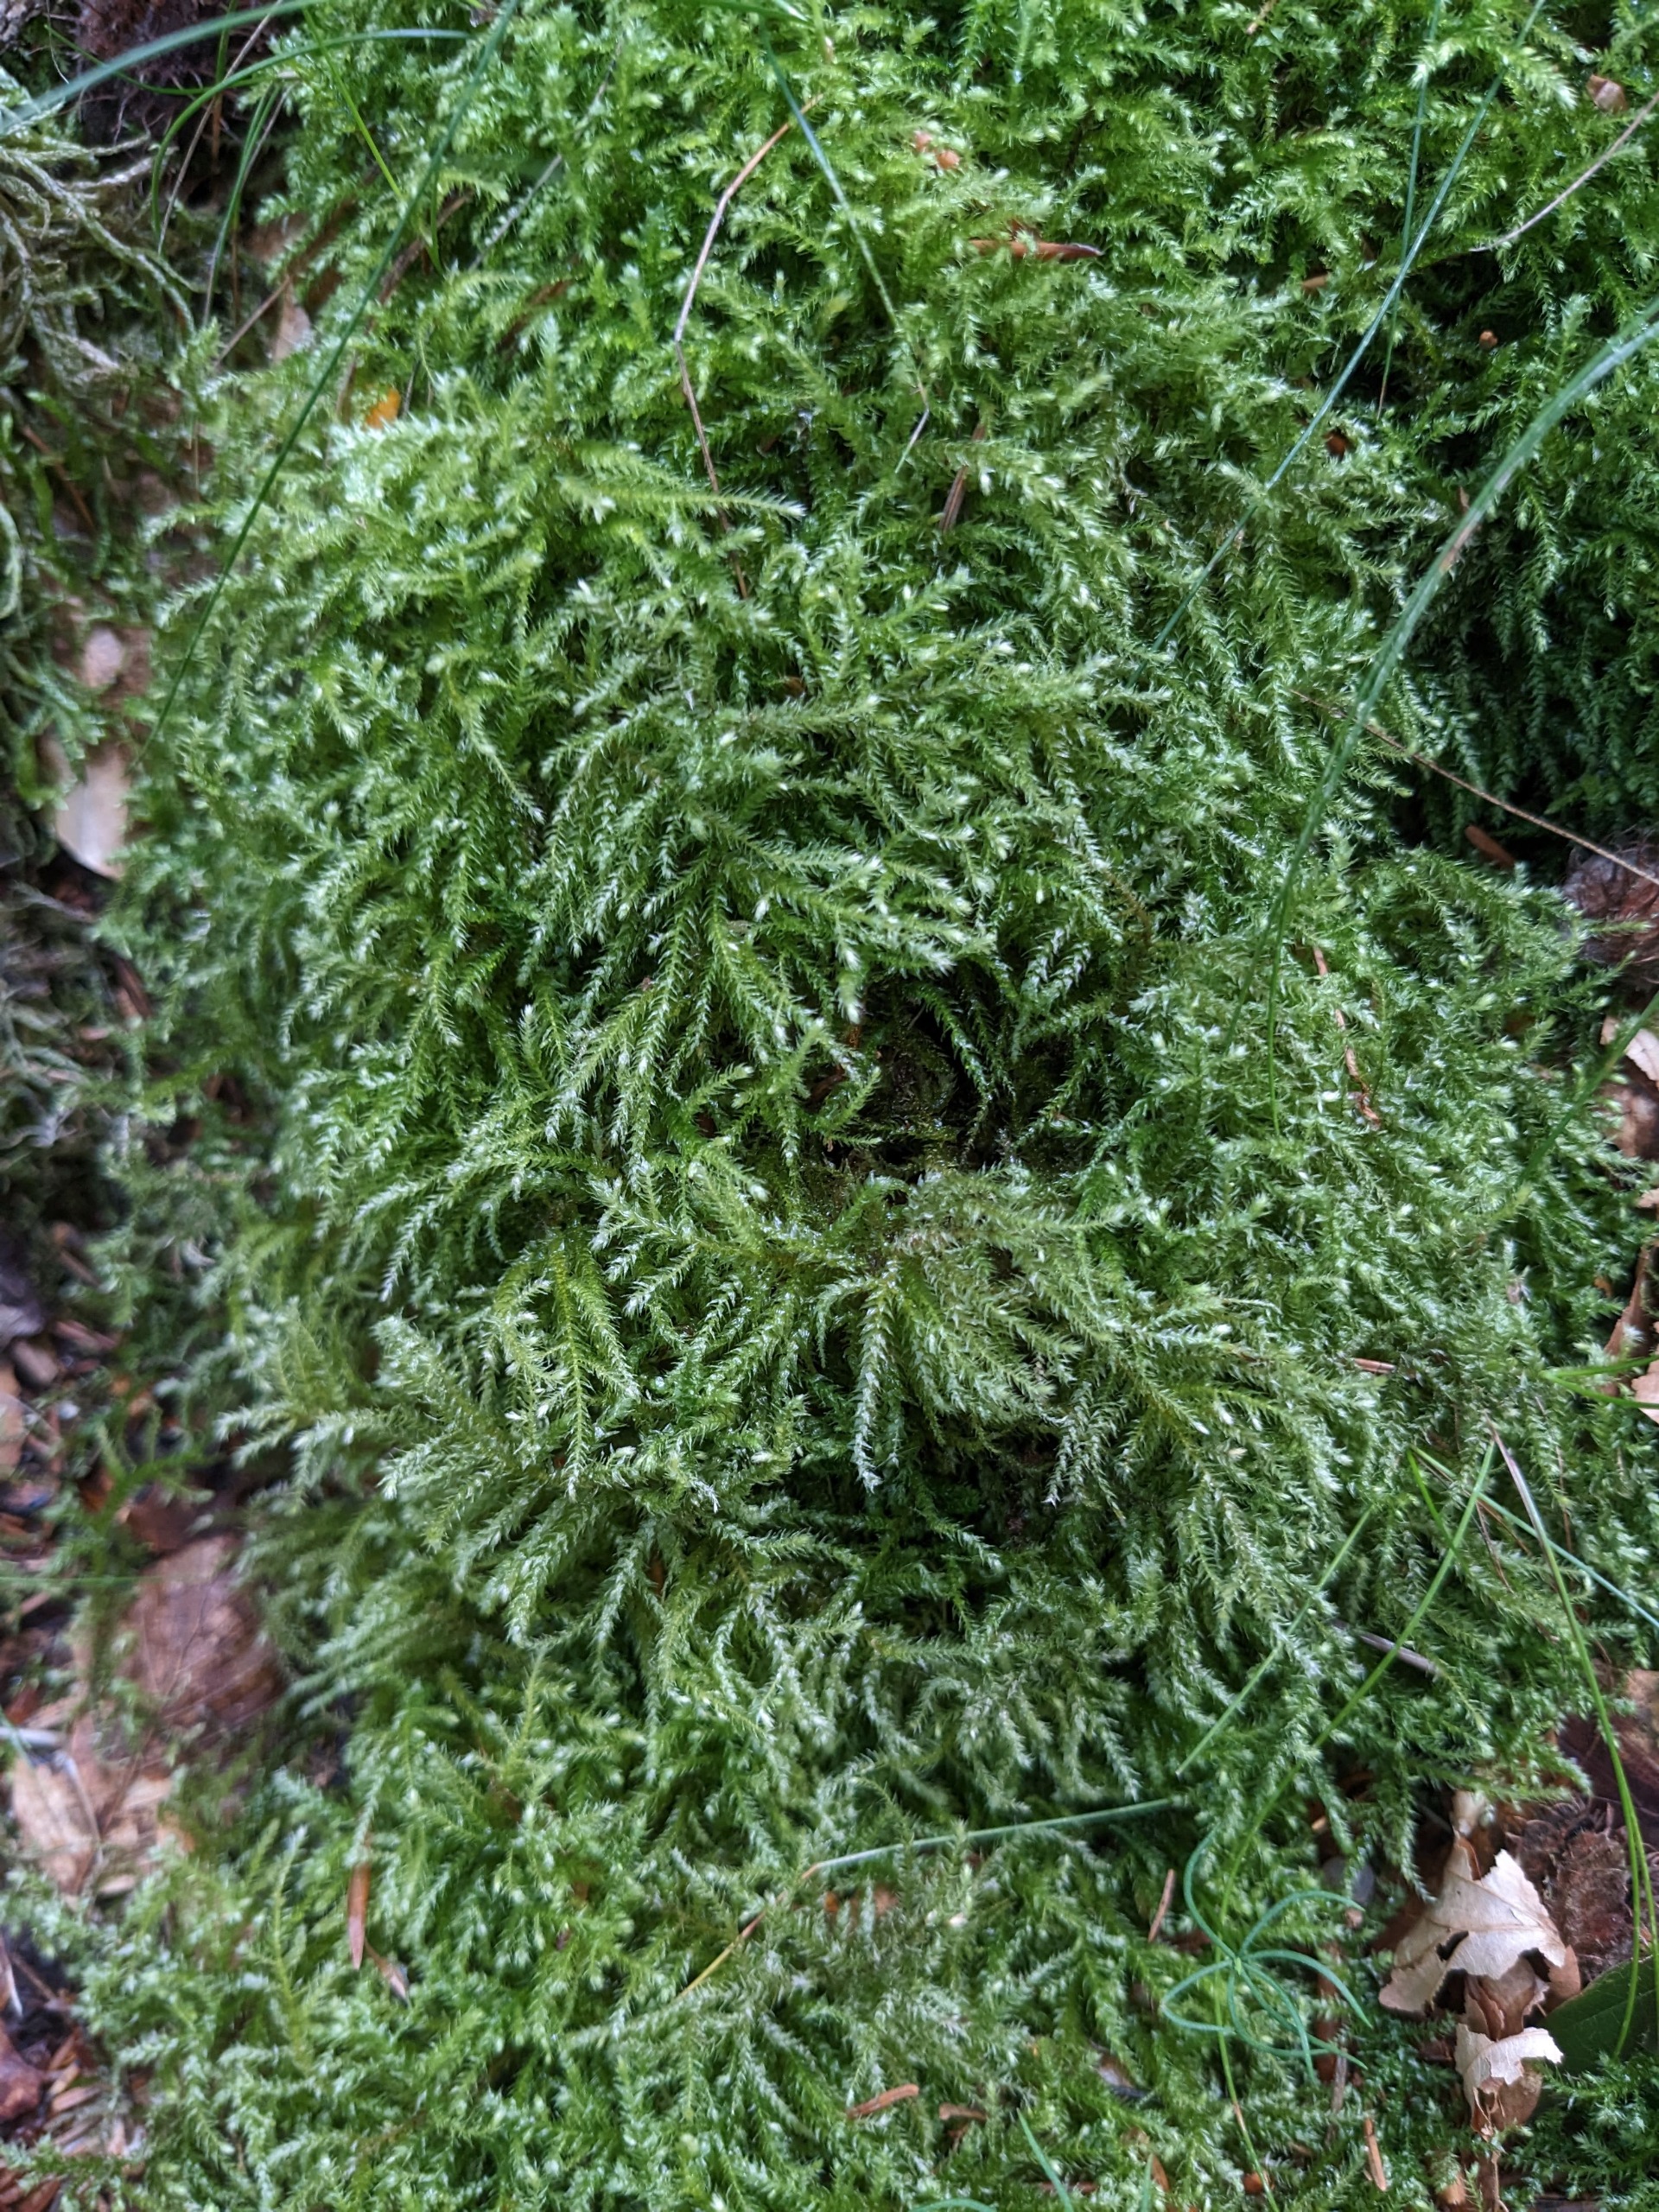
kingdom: Plantae
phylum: Bryophyta
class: Bryopsida
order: Hypnales
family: Brachytheciaceae
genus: Eurhynchium
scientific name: Eurhynchium striatum
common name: Stribet næbmos
